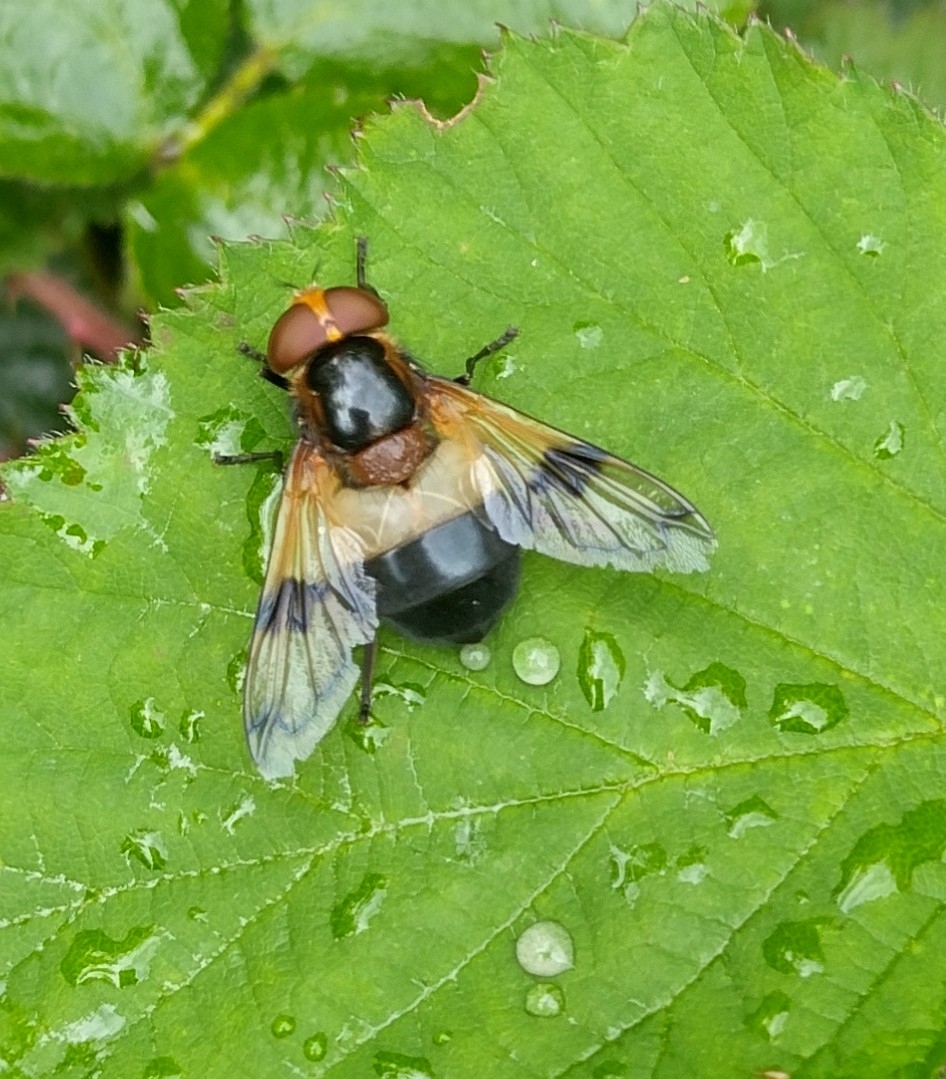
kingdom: Animalia
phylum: Arthropoda
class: Insecta
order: Diptera
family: Syrphidae
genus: Volucella
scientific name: Volucella pellucens
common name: Hvidbåndet humlesvirreflue
